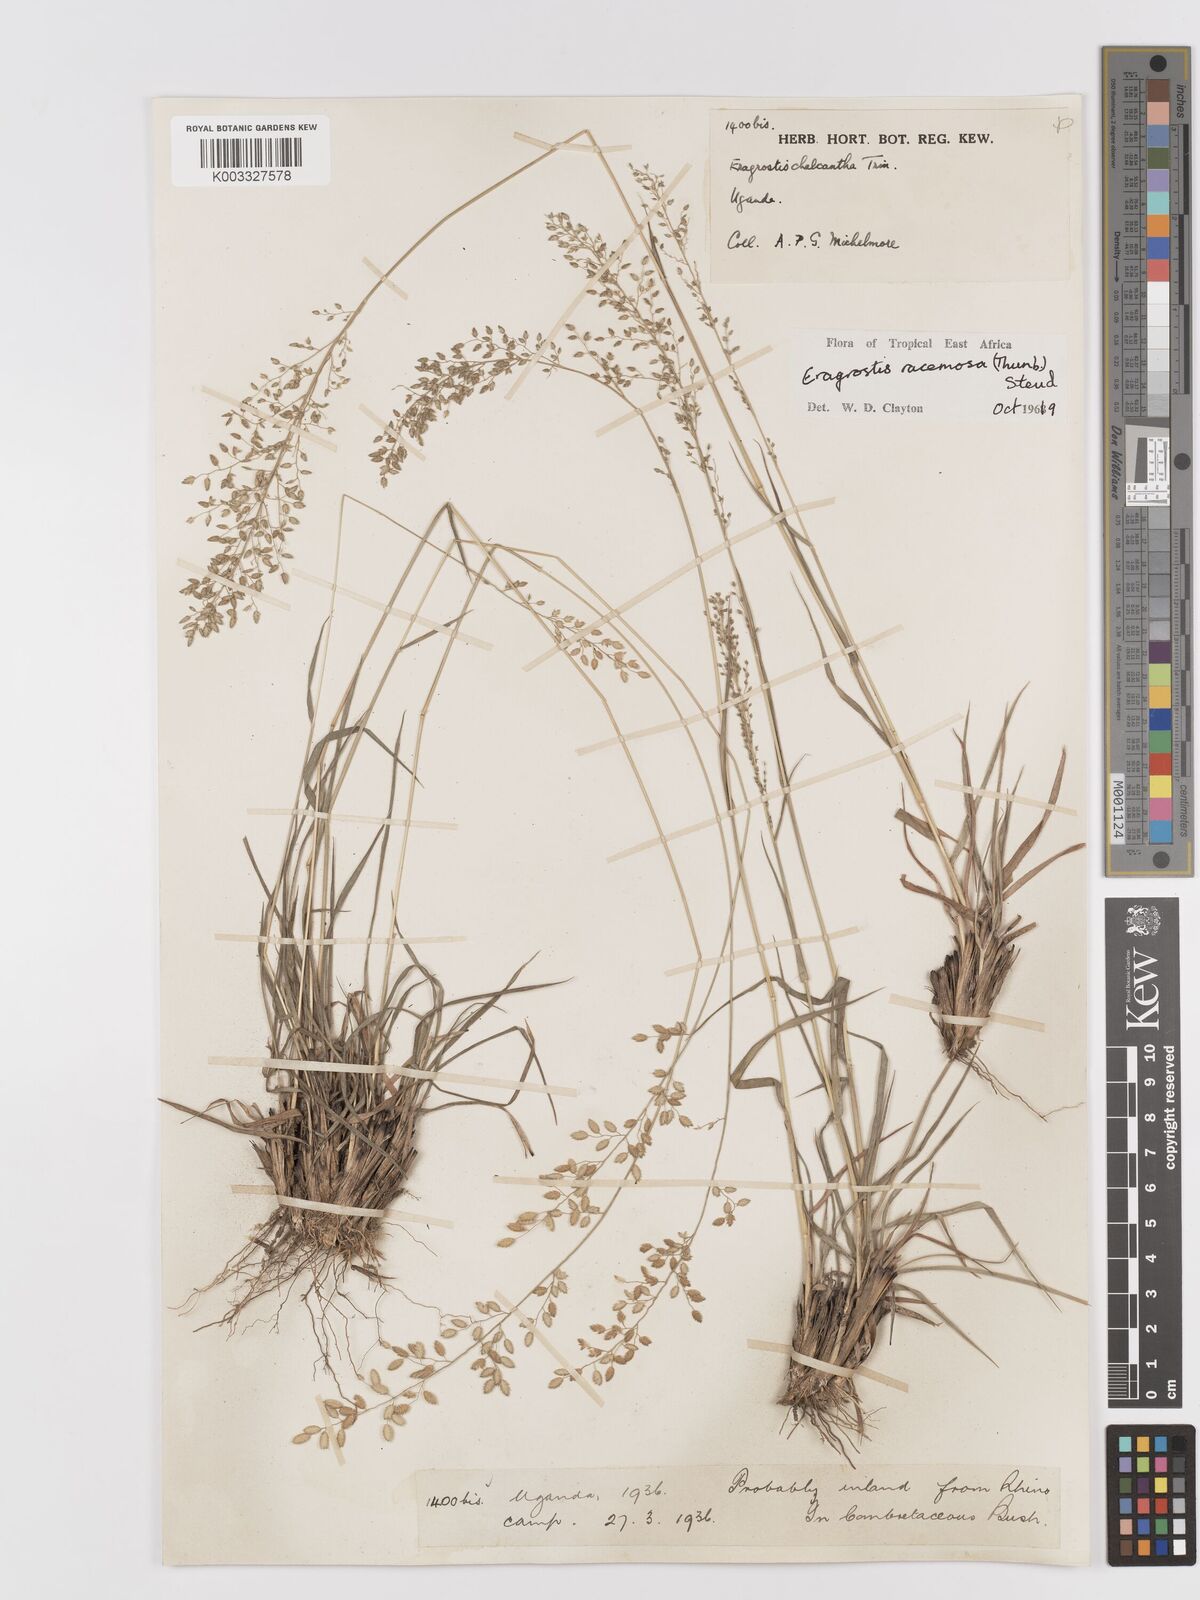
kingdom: Plantae
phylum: Tracheophyta
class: Liliopsida
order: Poales
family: Poaceae
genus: Eragrostis
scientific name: Eragrostis racemosa
